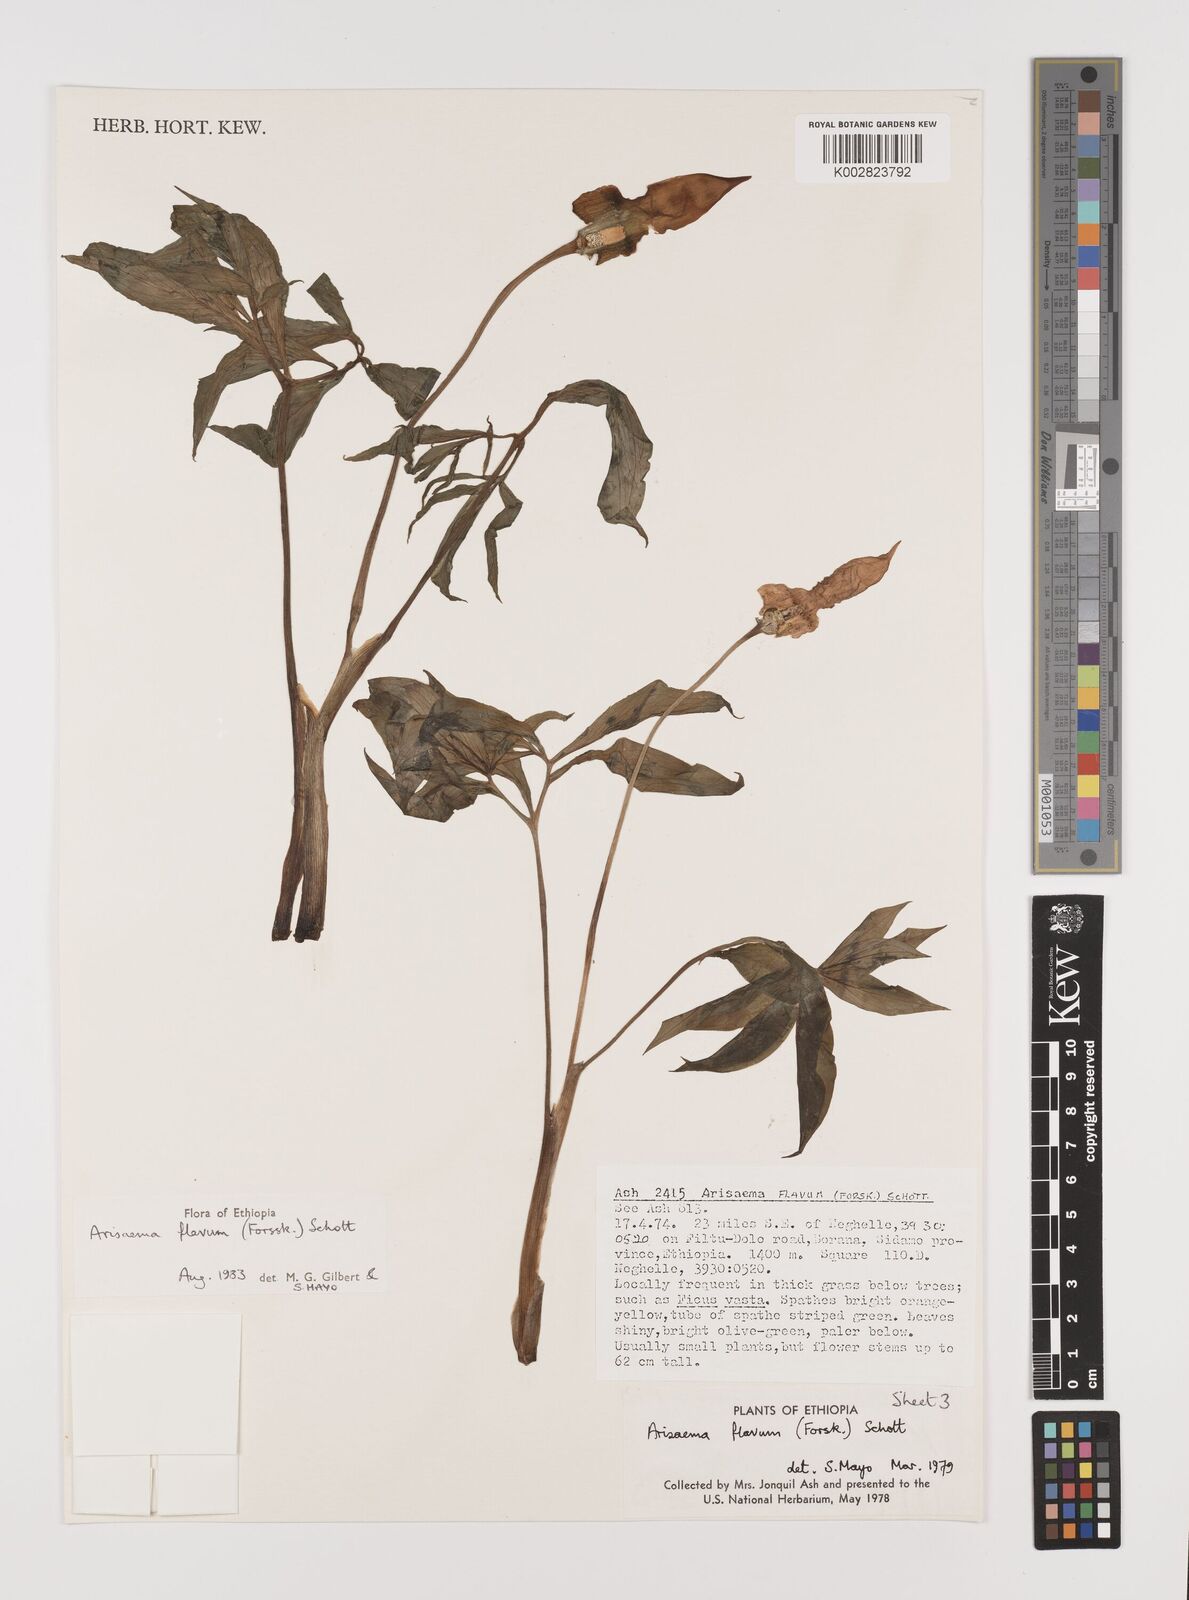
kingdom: Plantae
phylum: Tracheophyta
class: Liliopsida
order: Alismatales
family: Araceae
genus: Arisaema
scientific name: Arisaema flavum
